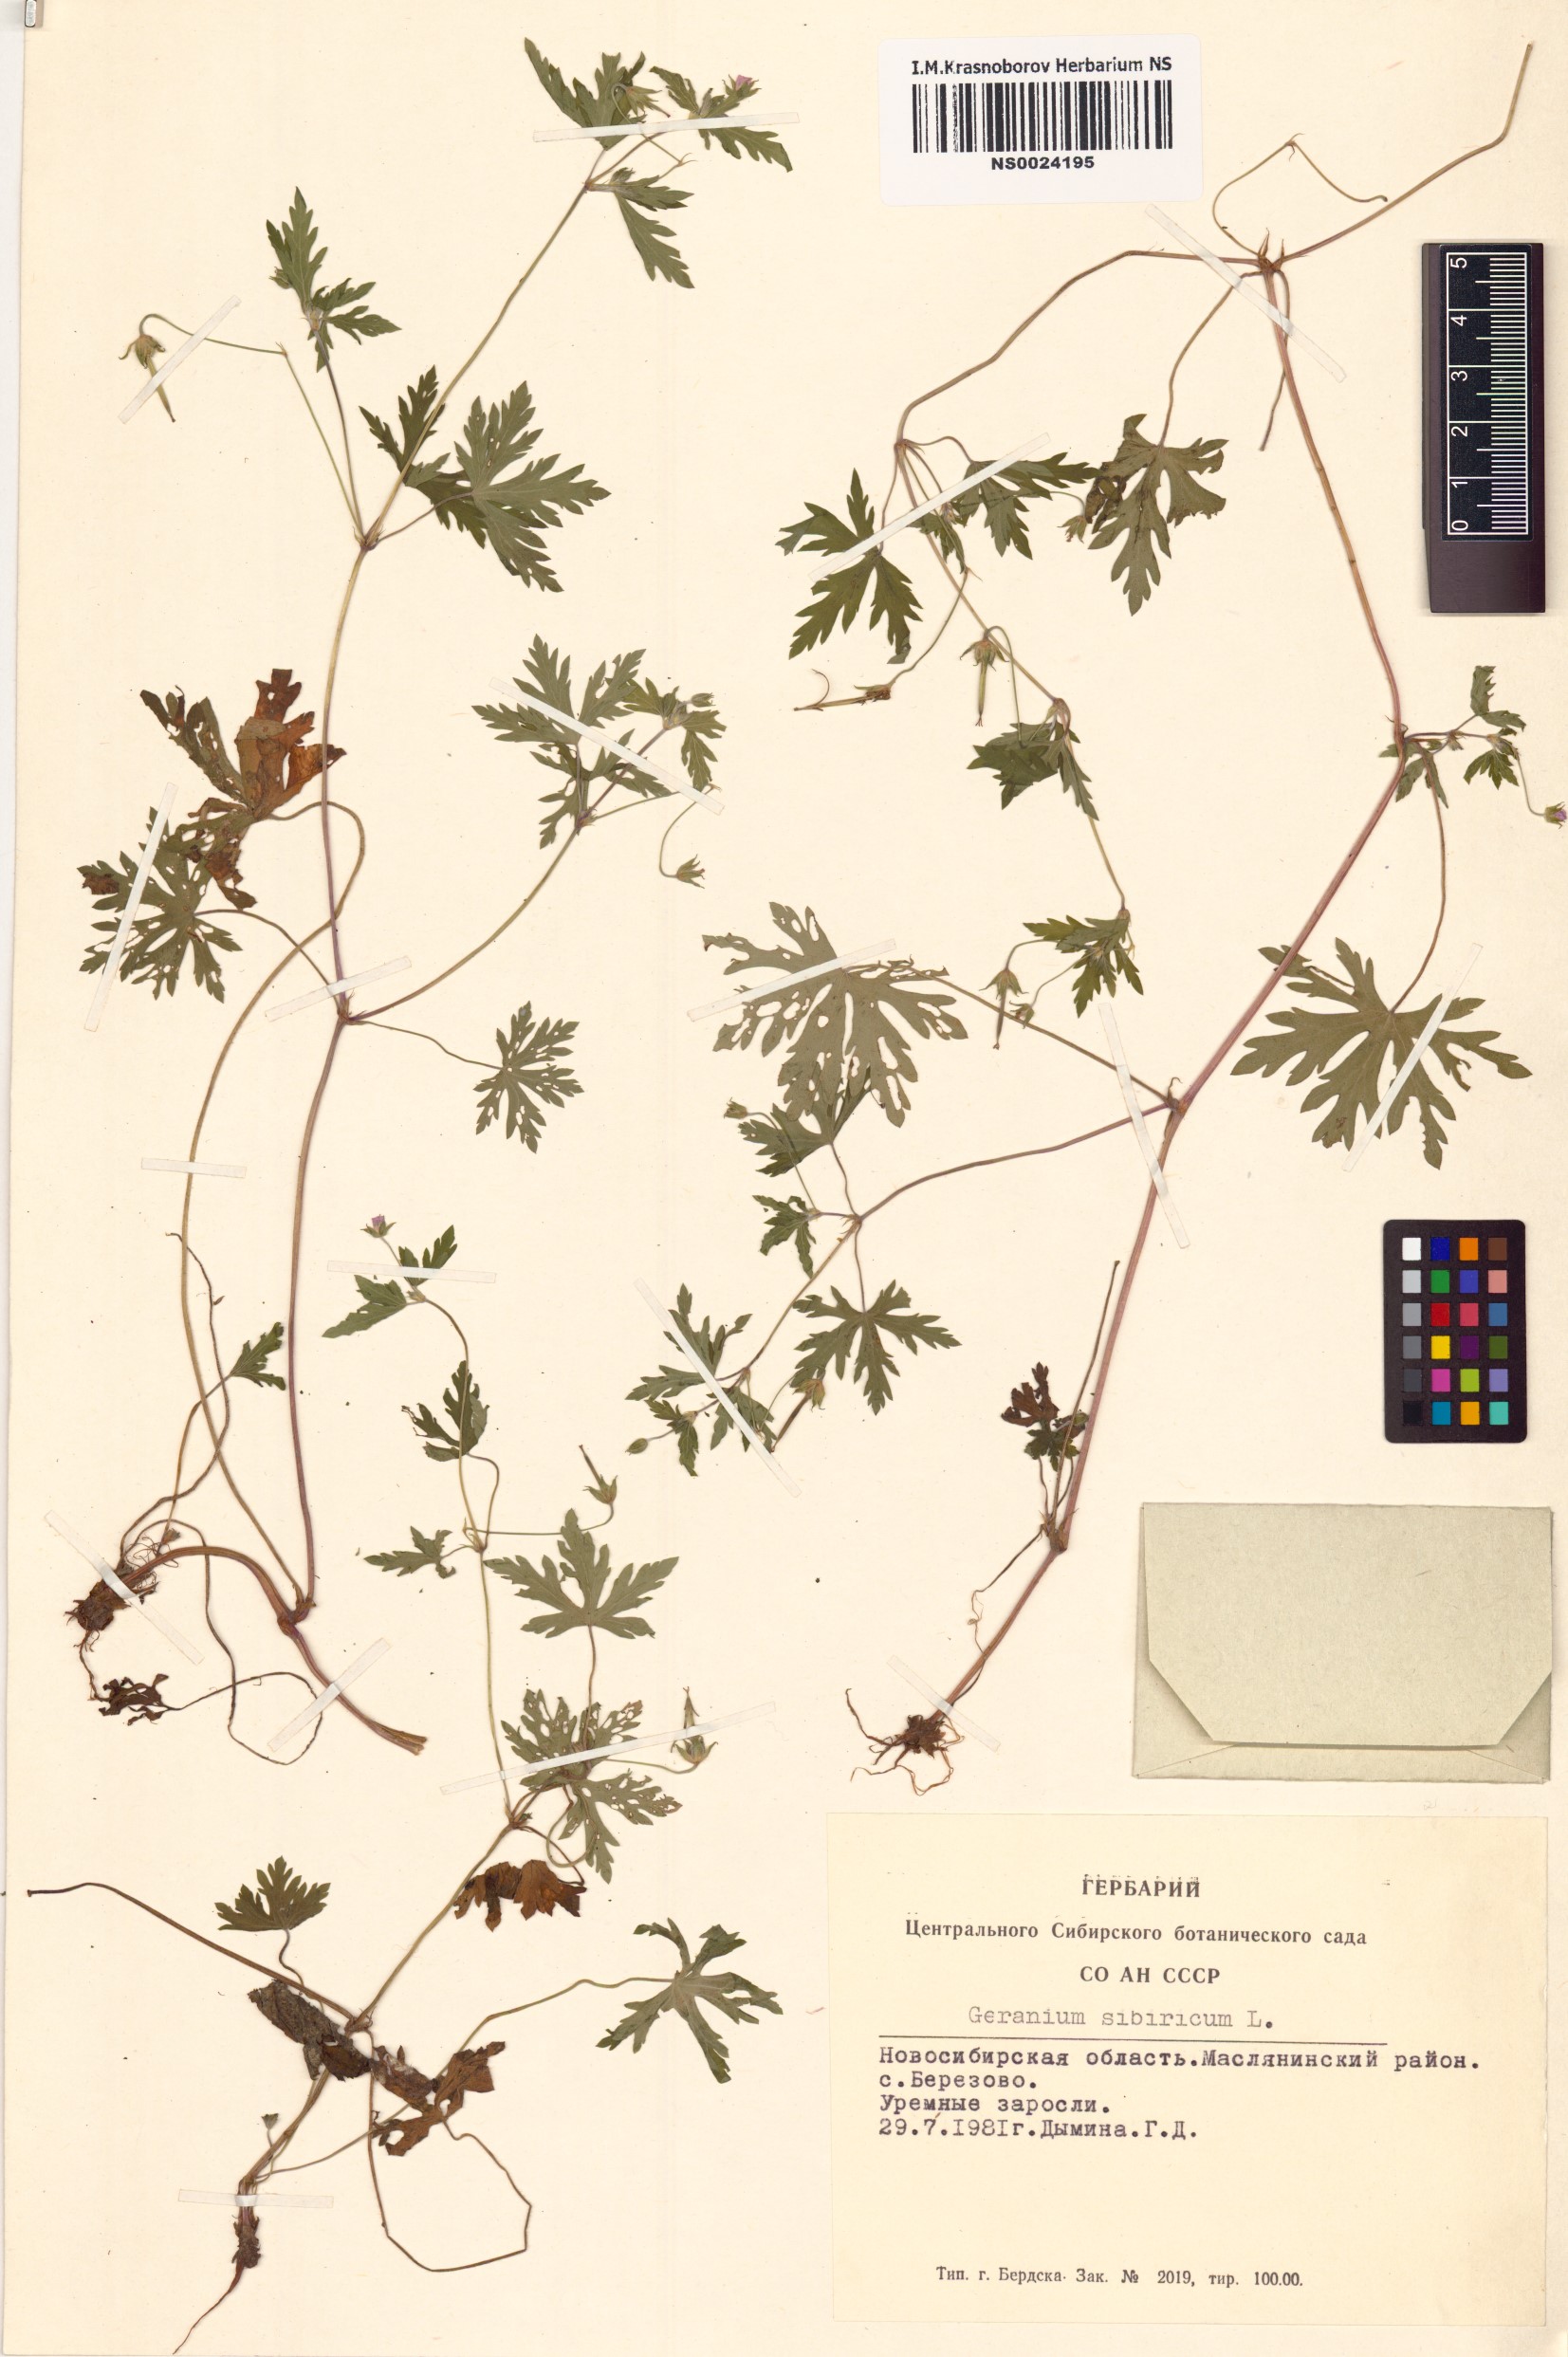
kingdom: Plantae
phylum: Tracheophyta
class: Magnoliopsida
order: Geraniales
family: Geraniaceae
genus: Geranium
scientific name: Geranium sibiricum
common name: Siberian crane's-bill
